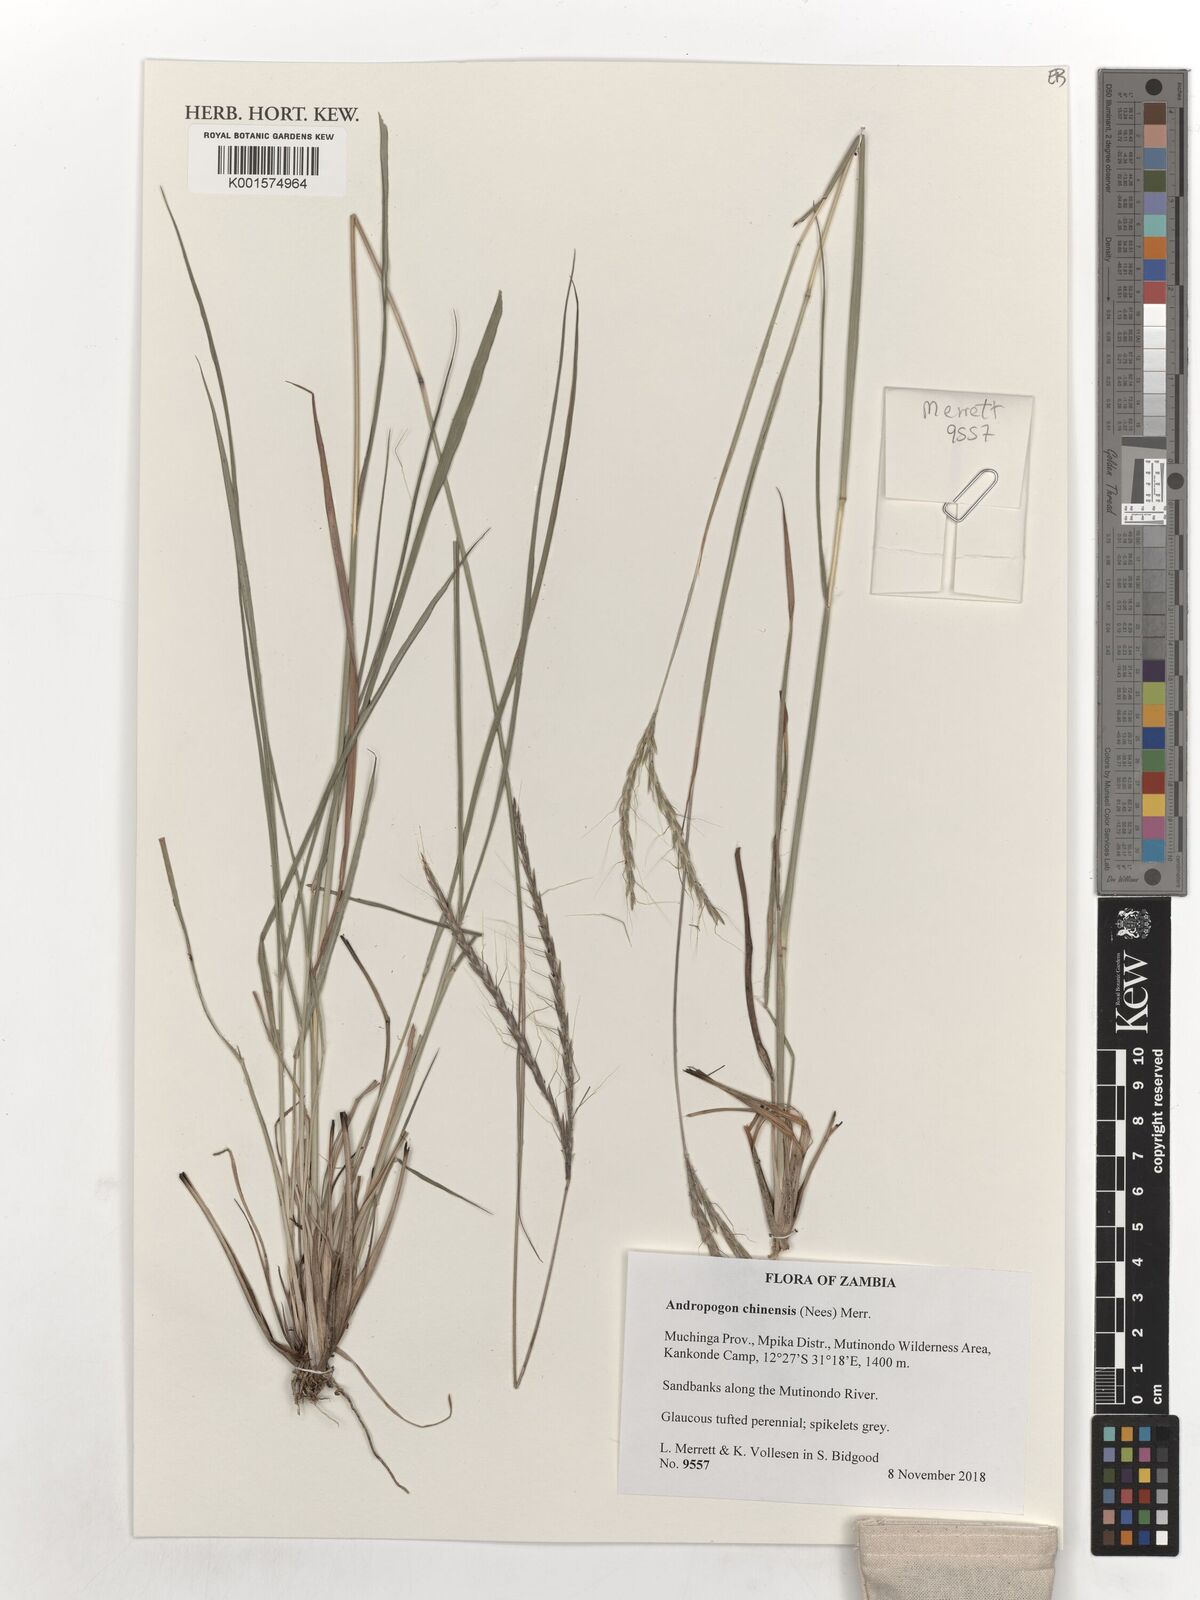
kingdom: Plantae
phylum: Tracheophyta
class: Liliopsida
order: Poales
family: Poaceae
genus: Andropogon
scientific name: Andropogon chinensis
